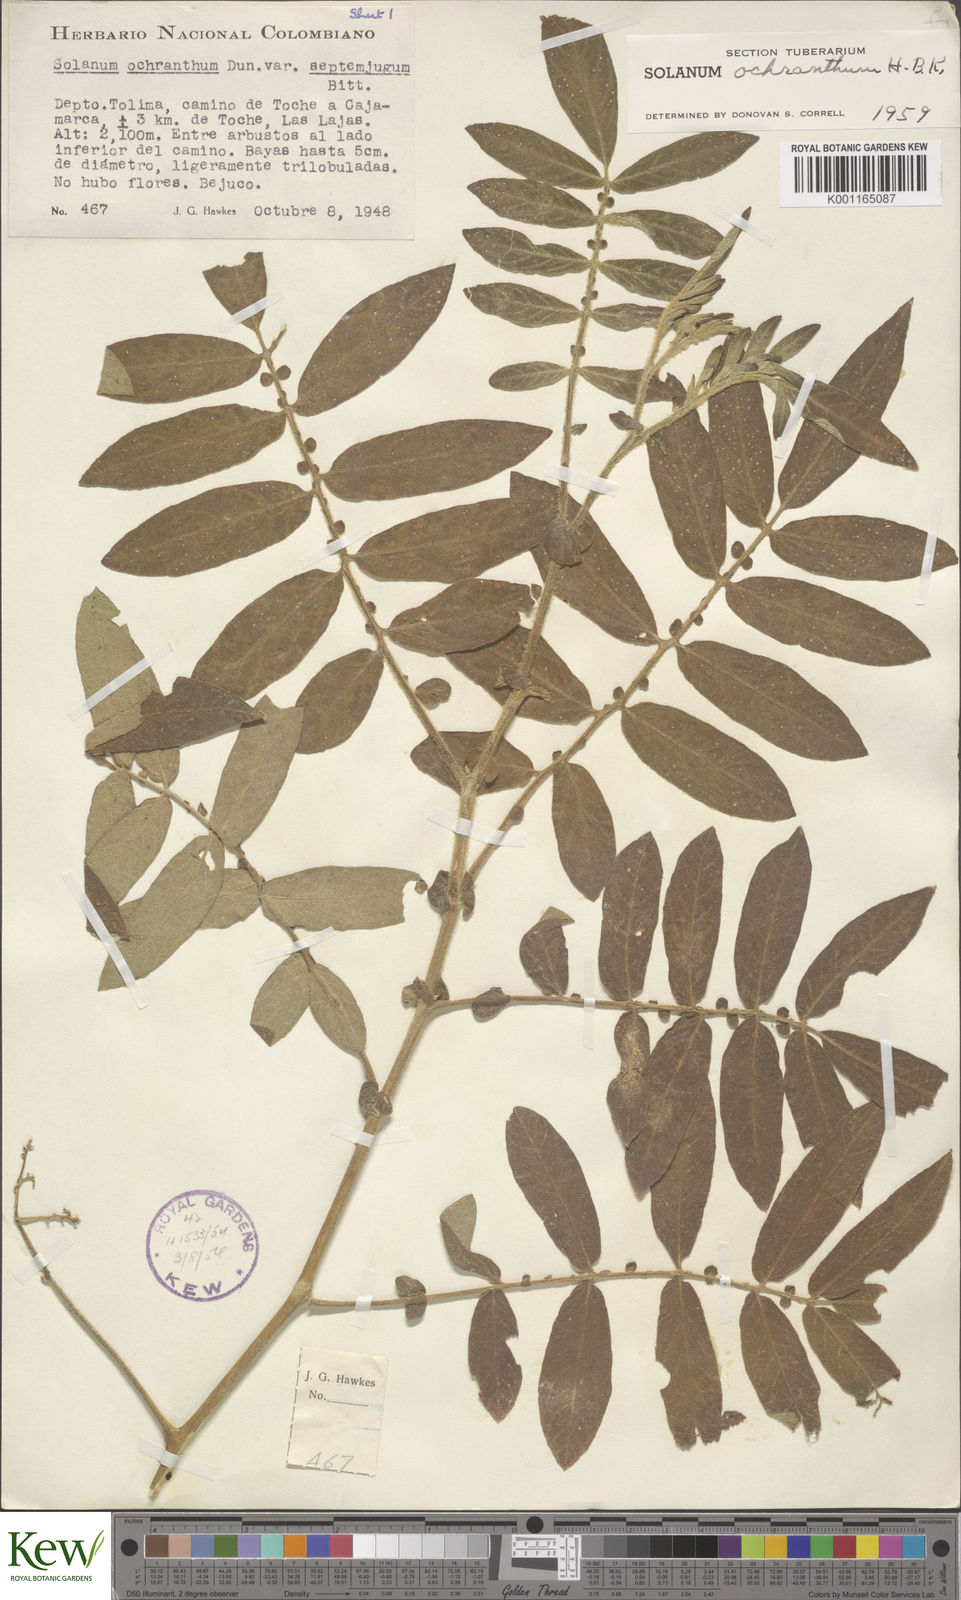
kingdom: Plantae
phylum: Tracheophyta
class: Magnoliopsida
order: Solanales
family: Solanaceae
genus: Solanum
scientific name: Solanum ochranthum
